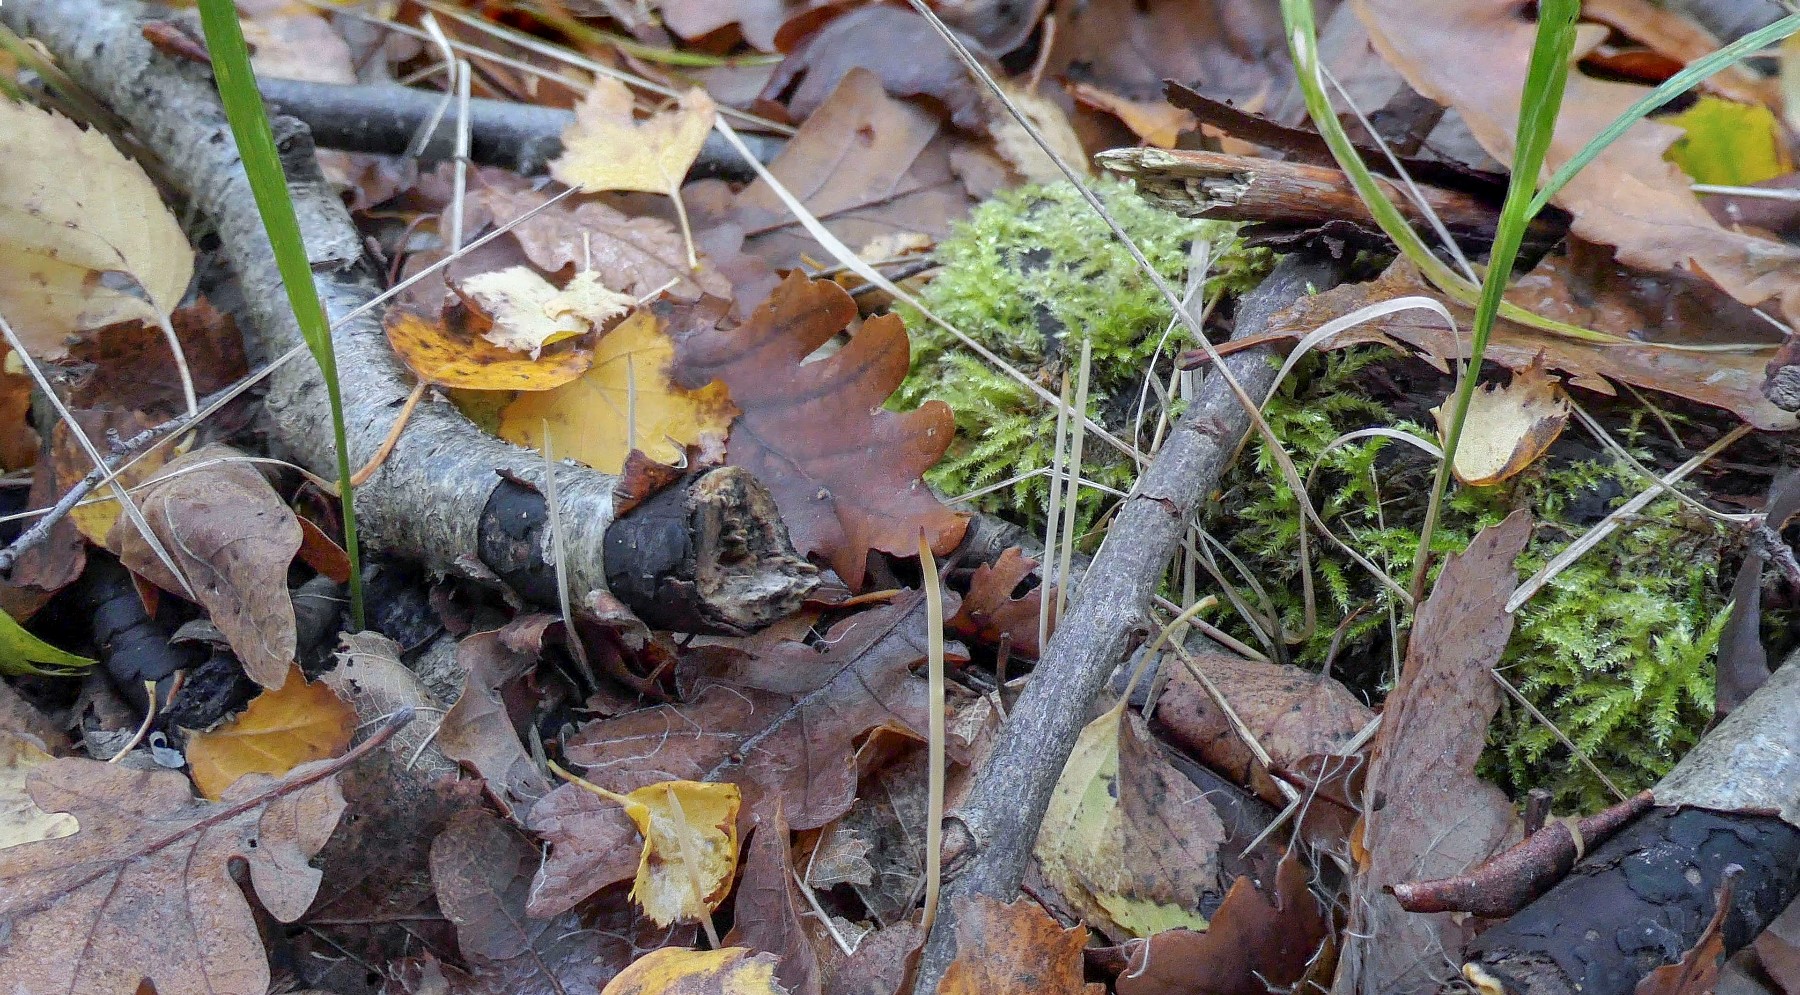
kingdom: Fungi
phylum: Basidiomycota
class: Agaricomycetes
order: Agaricales
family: Typhulaceae
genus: Typhula
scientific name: Typhula juncea
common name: trådagtig rørkølle
